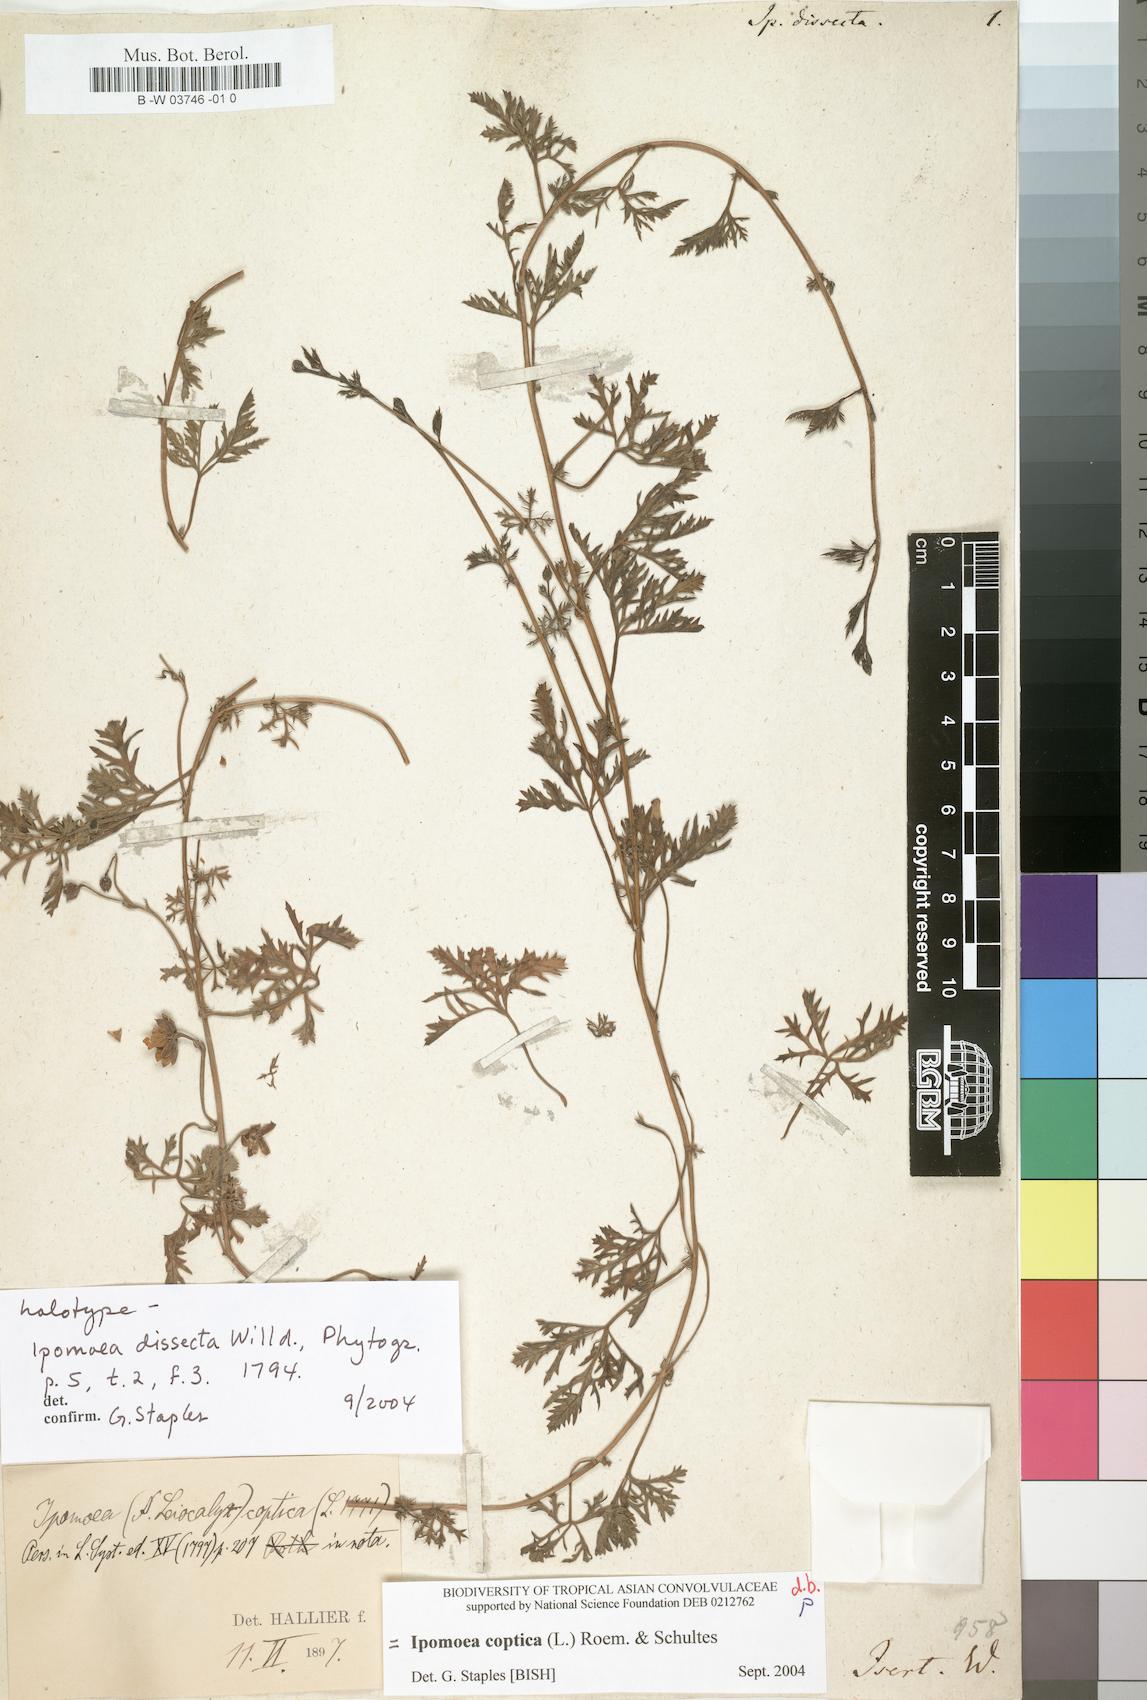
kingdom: Plantae
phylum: Tracheophyta
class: Magnoliopsida
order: Solanales
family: Convolvulaceae
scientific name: Convolvulaceae
